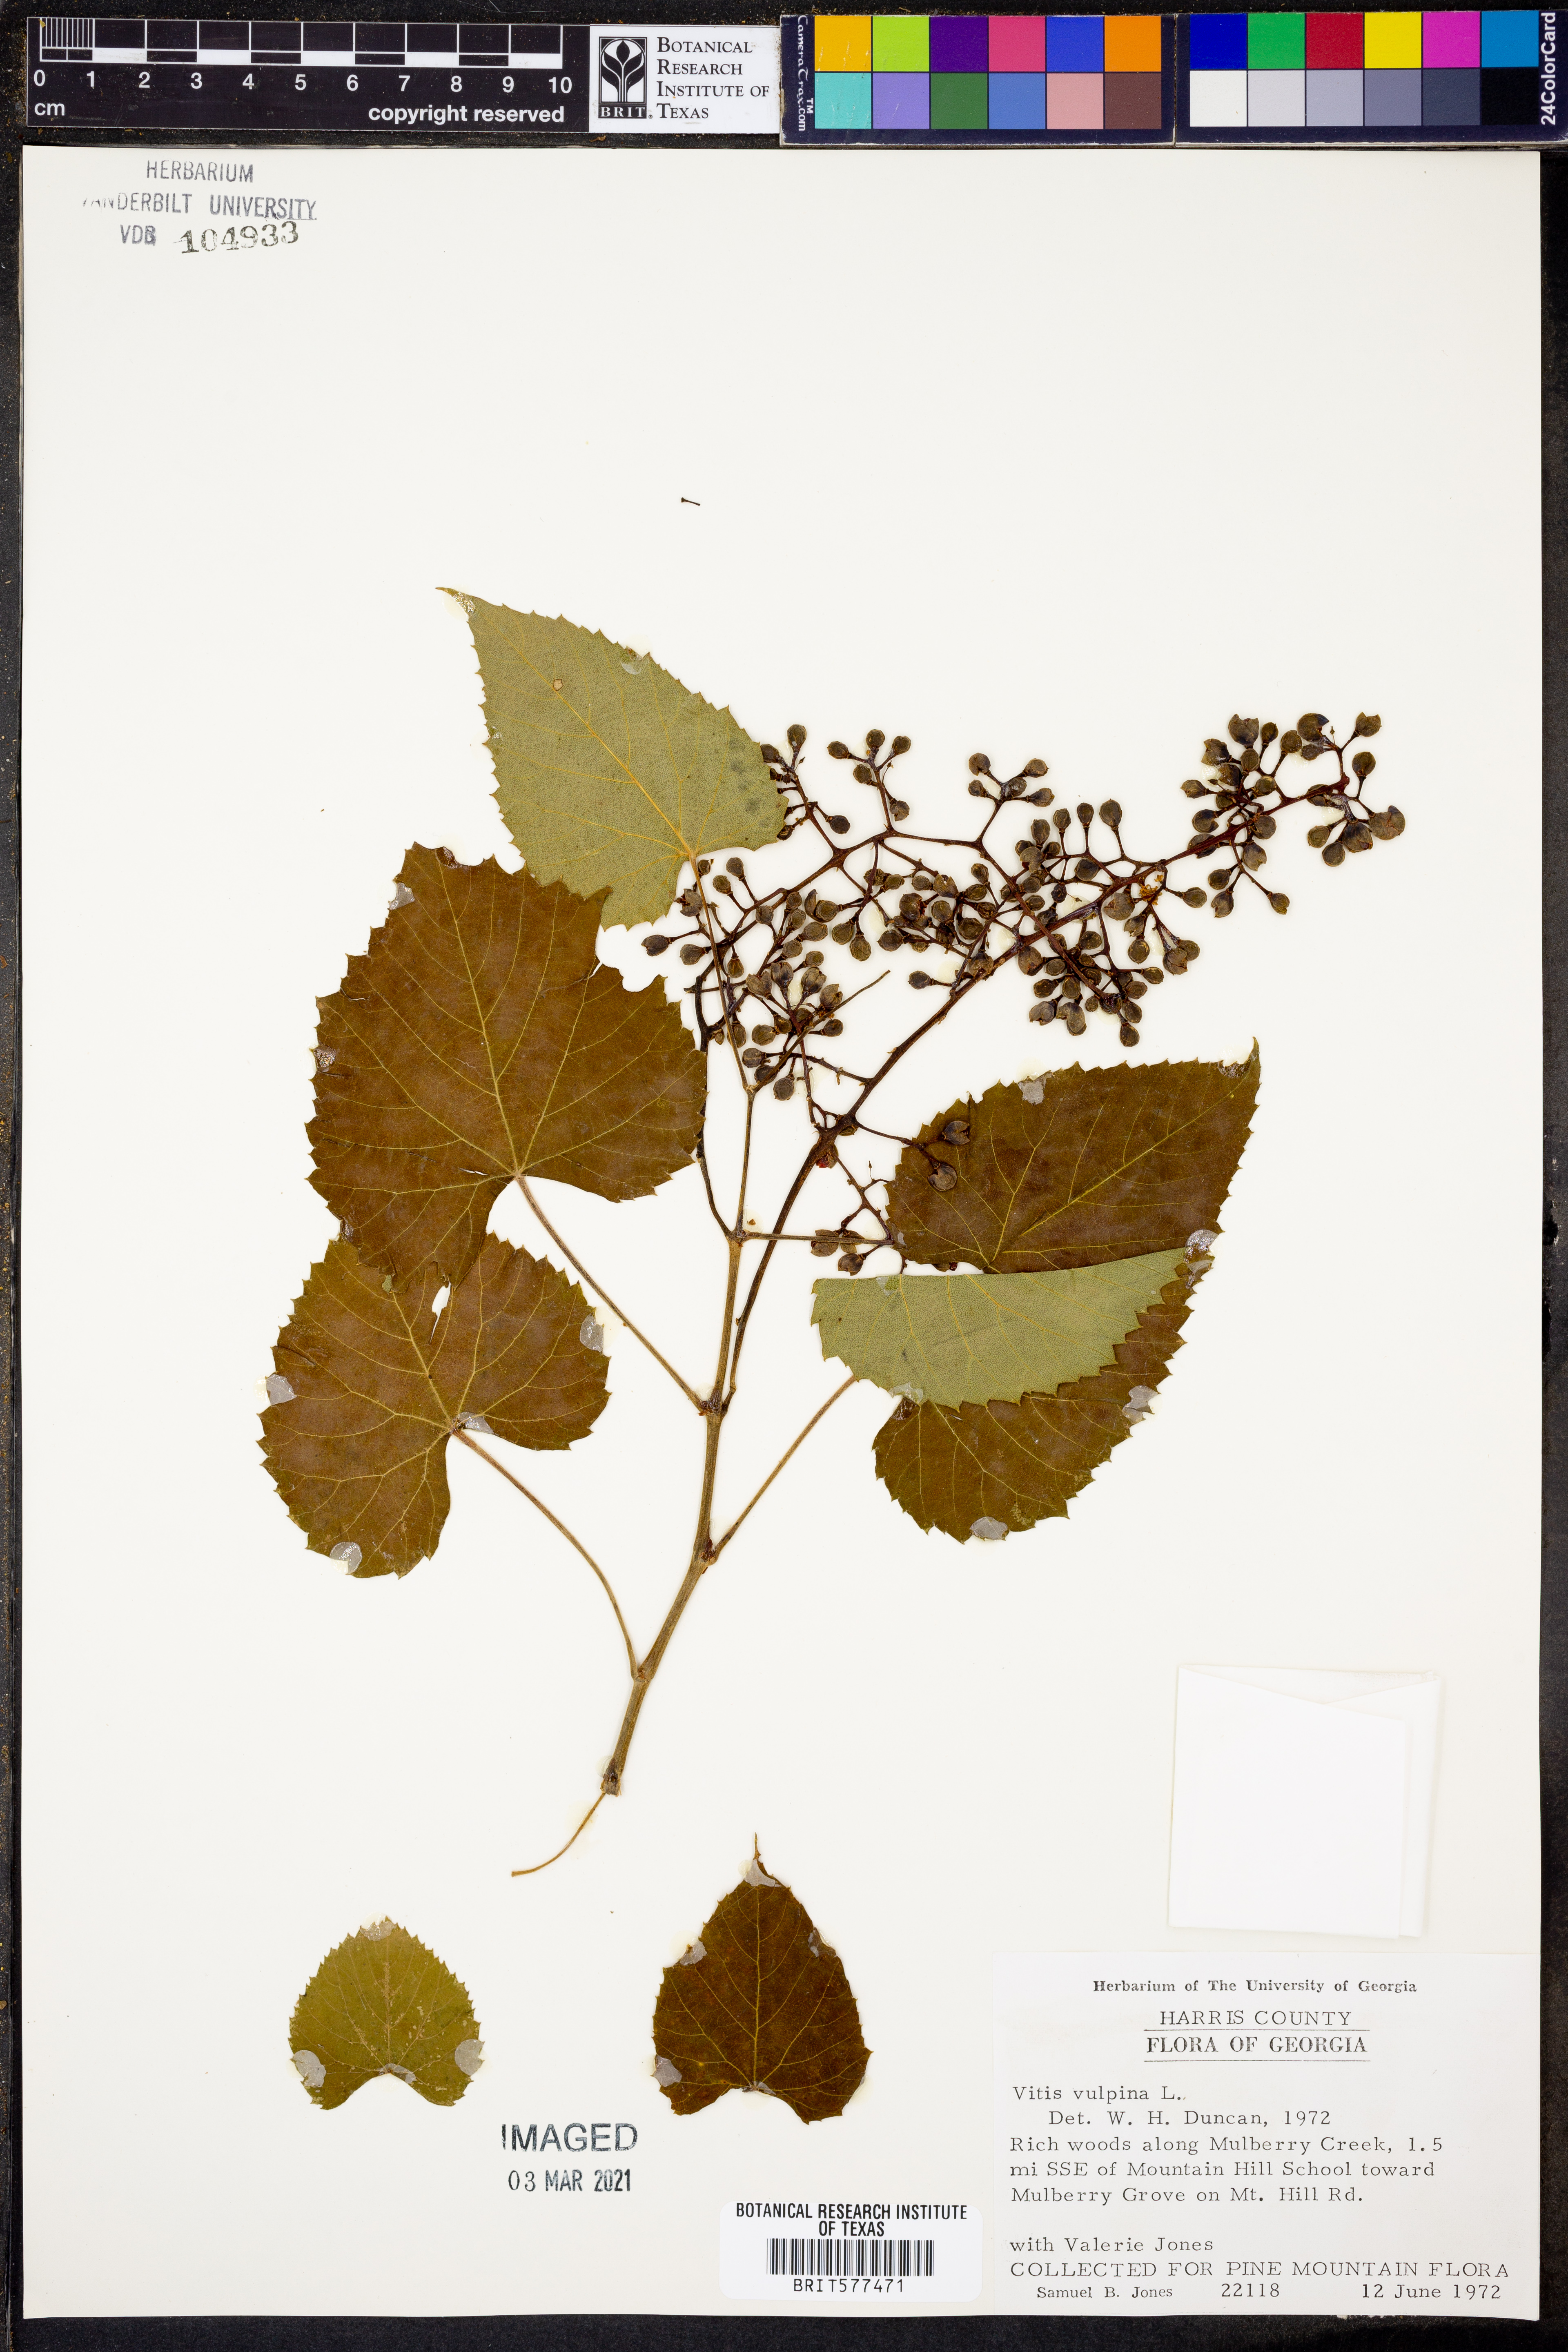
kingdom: Plantae
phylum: Tracheophyta
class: Magnoliopsida
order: Vitales
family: Vitaceae
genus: Vitis
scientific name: Vitis vulpina
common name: Frost grape
